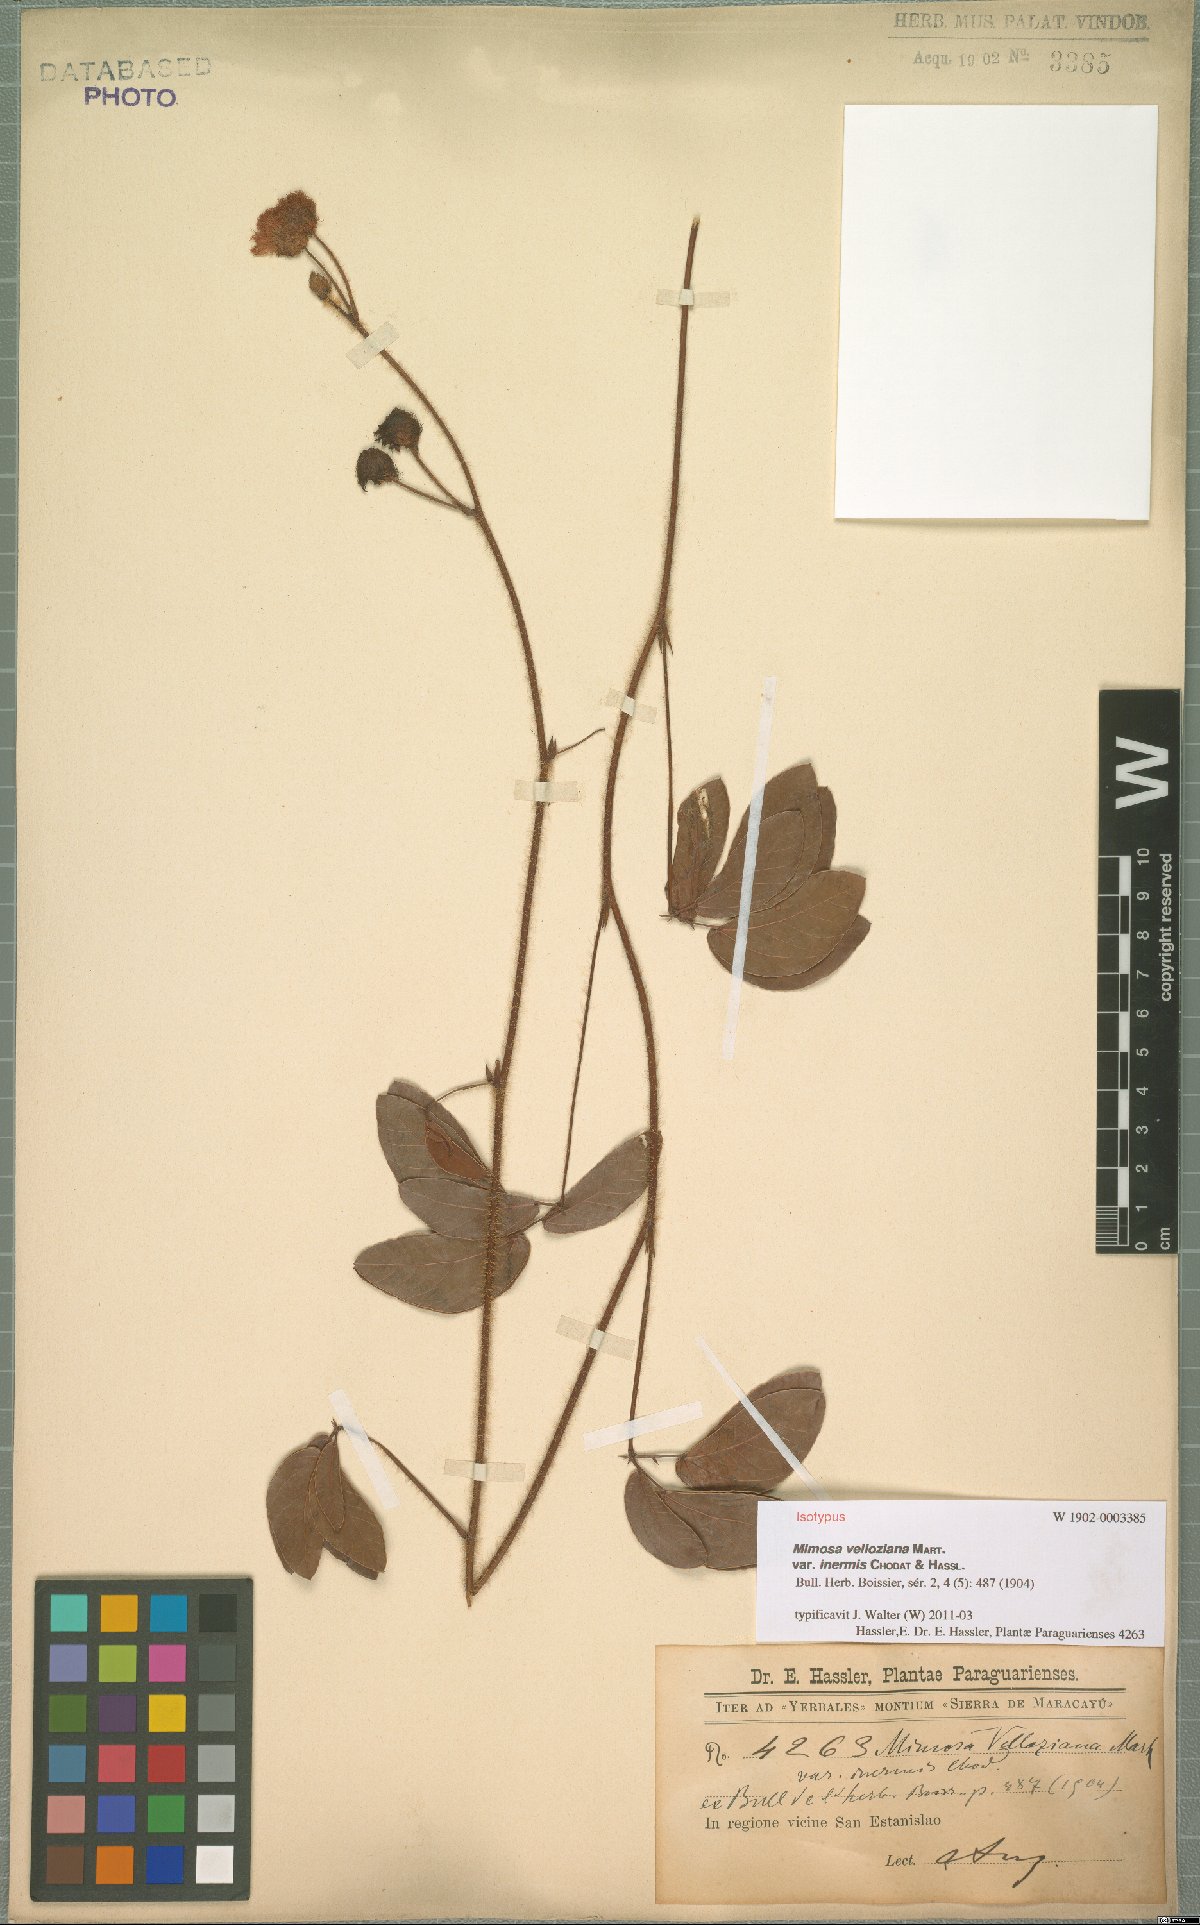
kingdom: Plantae
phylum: Tracheophyta
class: Magnoliopsida
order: Fabales
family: Fabaceae
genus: Mimosa
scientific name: Mimosa debilis
